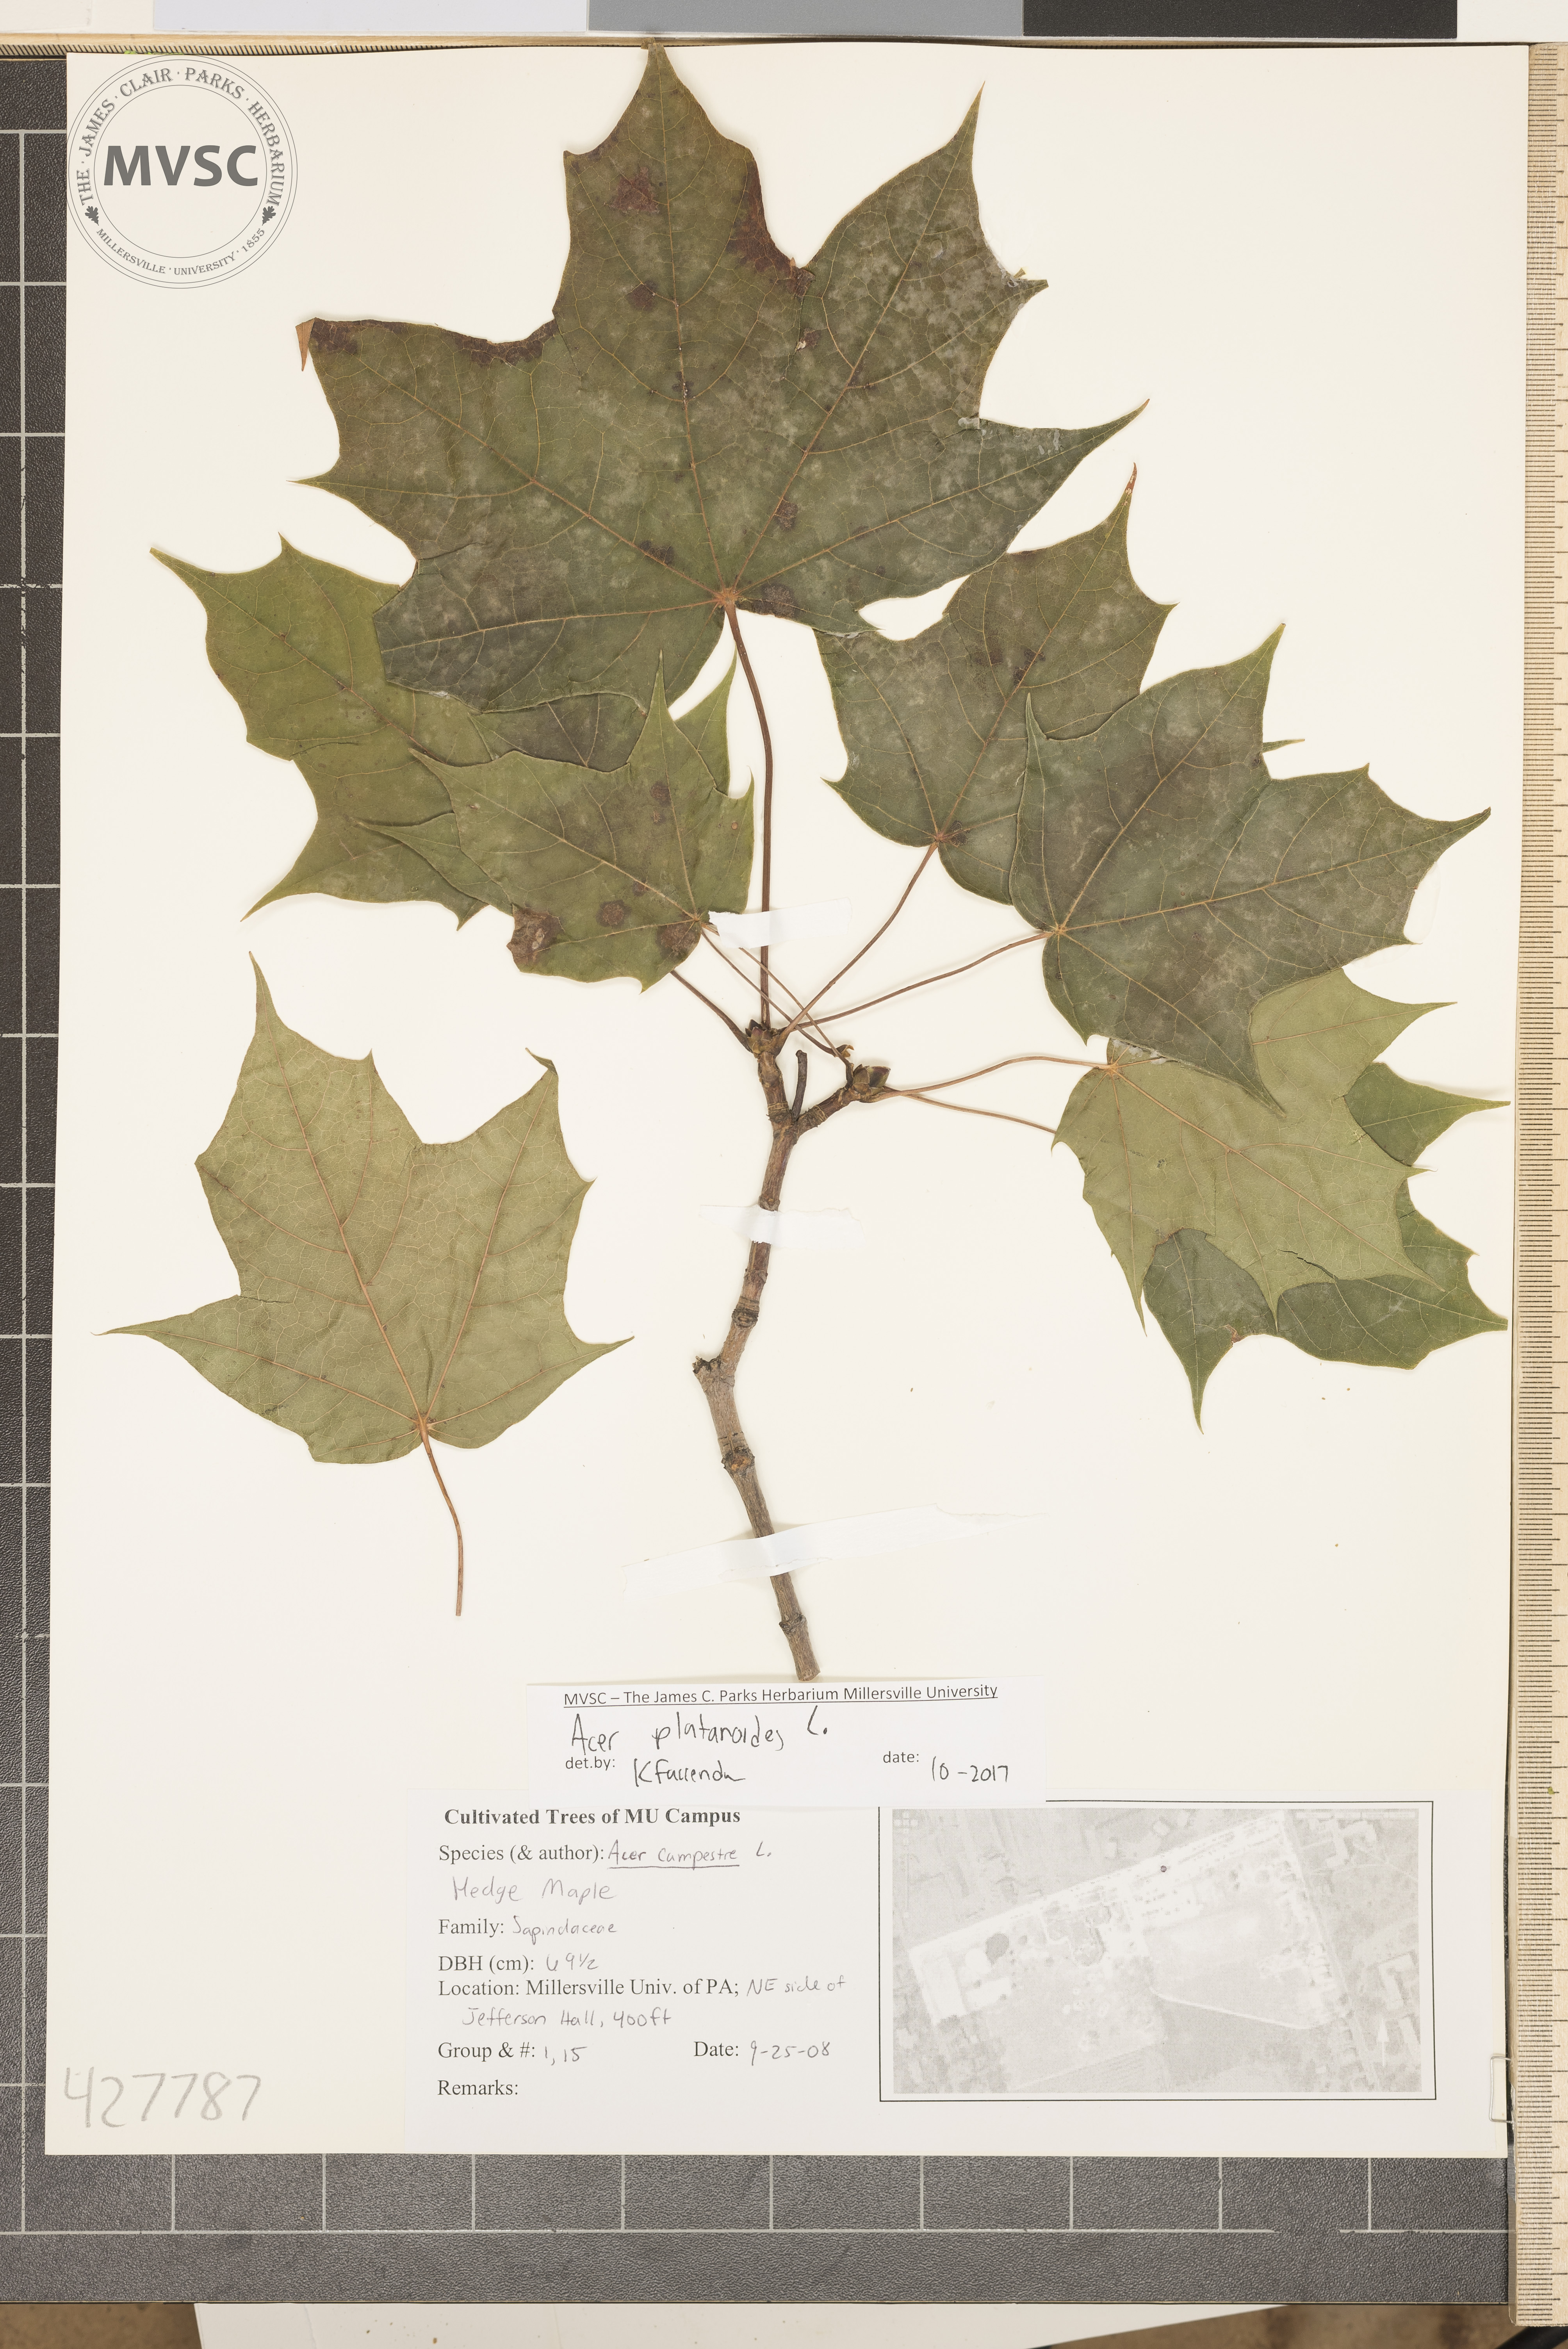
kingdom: Plantae
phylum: Tracheophyta
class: Magnoliopsida
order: Sapindales
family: Sapindaceae
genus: Acer
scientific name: Acer platanoides
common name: Norway maple
